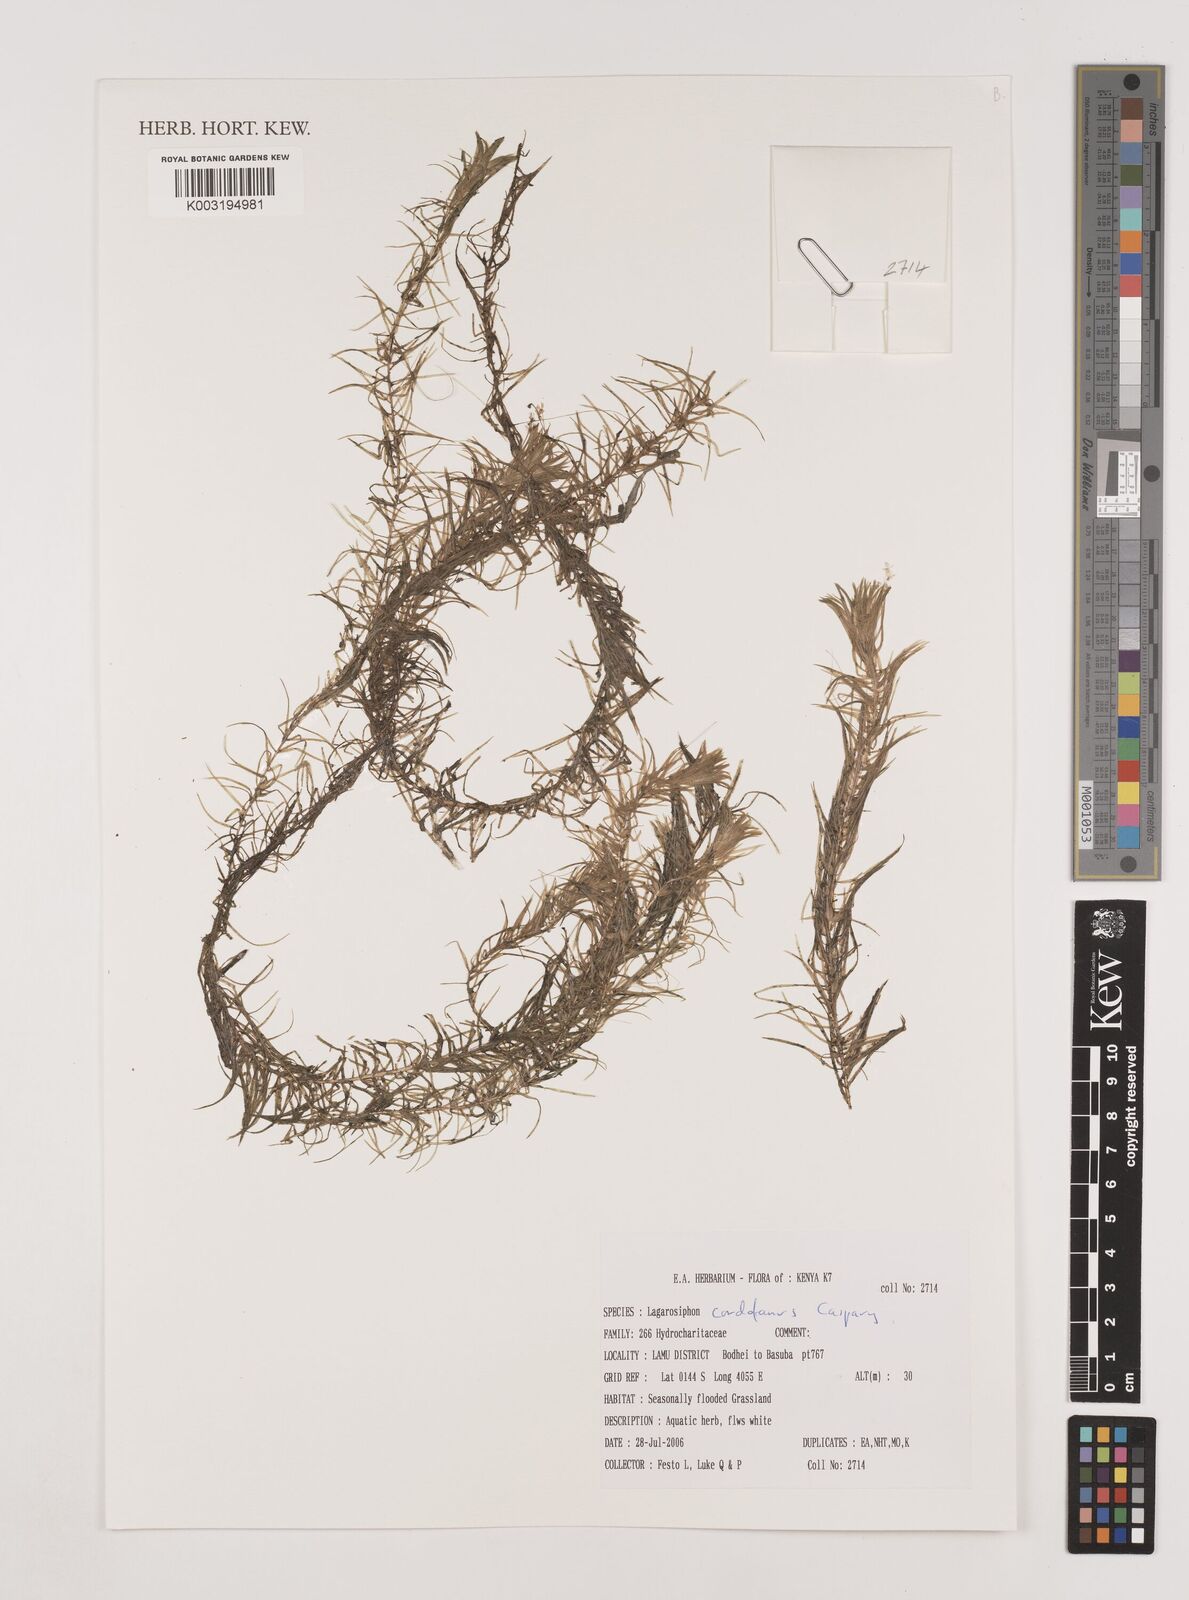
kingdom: Plantae
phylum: Tracheophyta
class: Liliopsida
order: Alismatales
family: Hydrocharitaceae
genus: Lagarosiphon
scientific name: Lagarosiphon cordofanus
